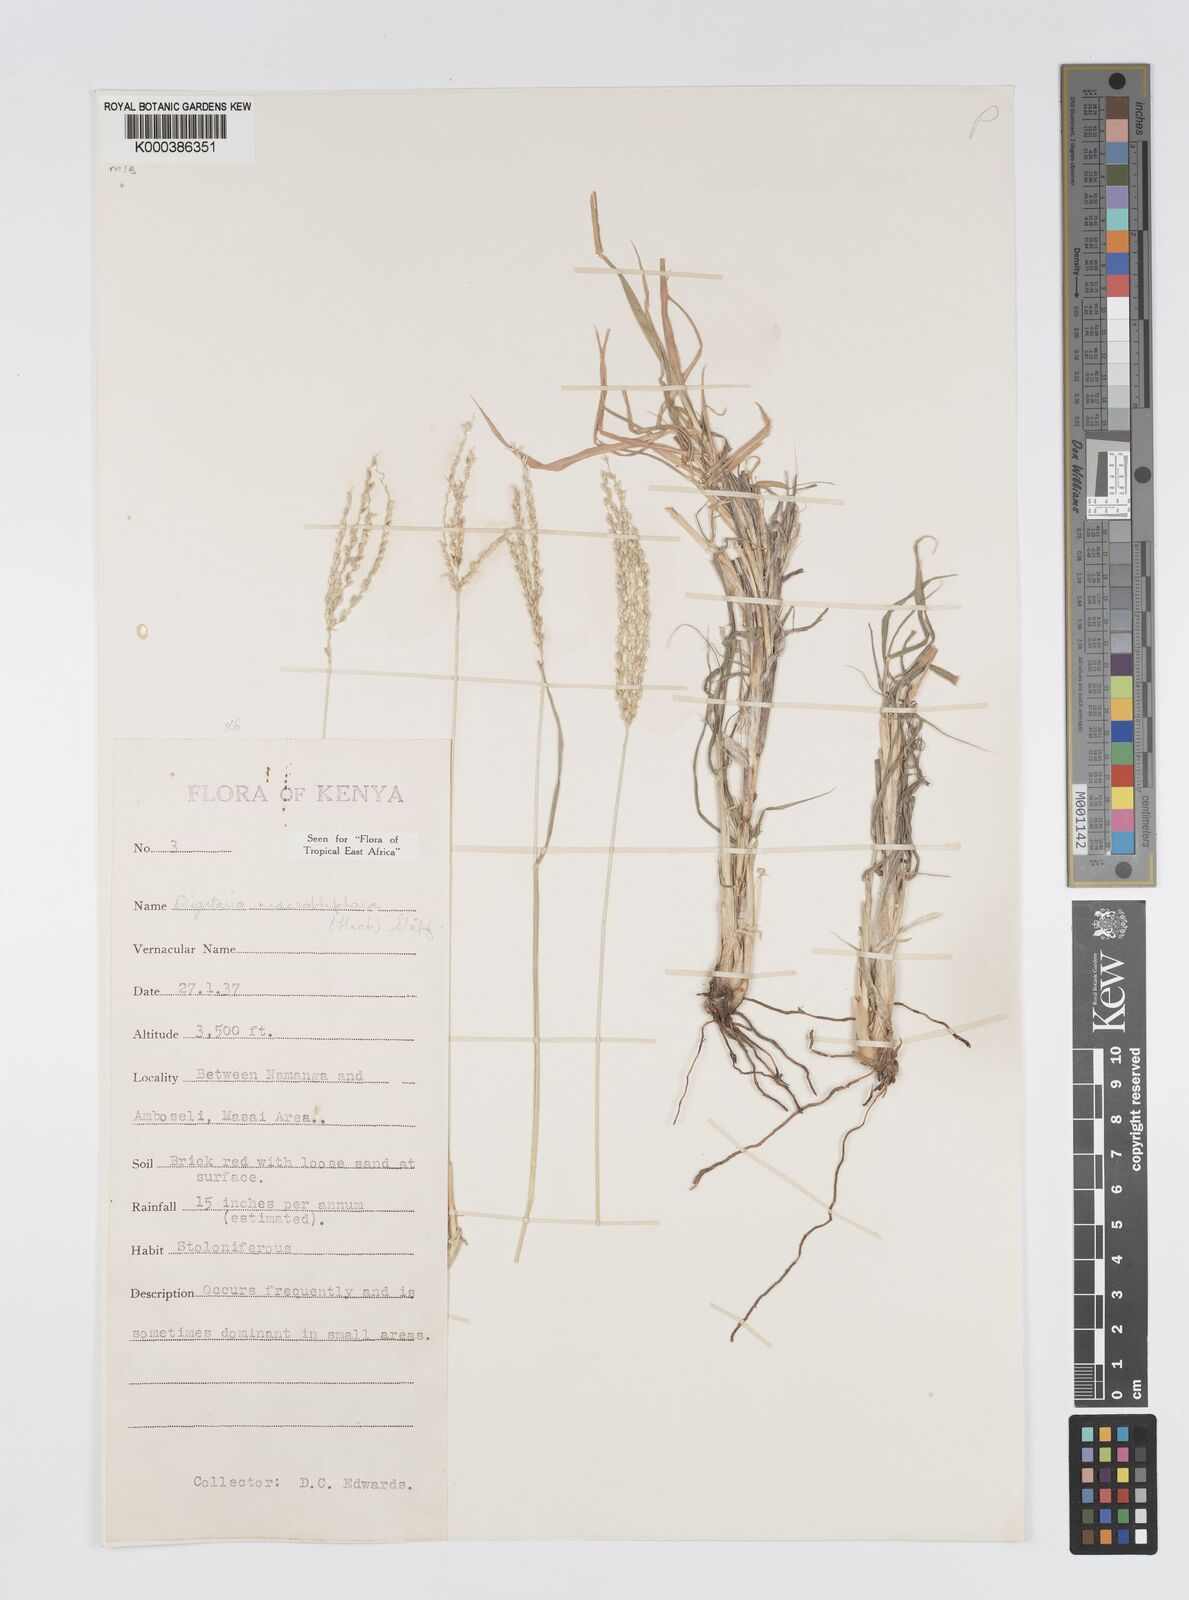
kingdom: Plantae
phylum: Tracheophyta
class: Liliopsida
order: Poales
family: Poaceae
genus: Digitaria
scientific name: Digitaria macroblephara
